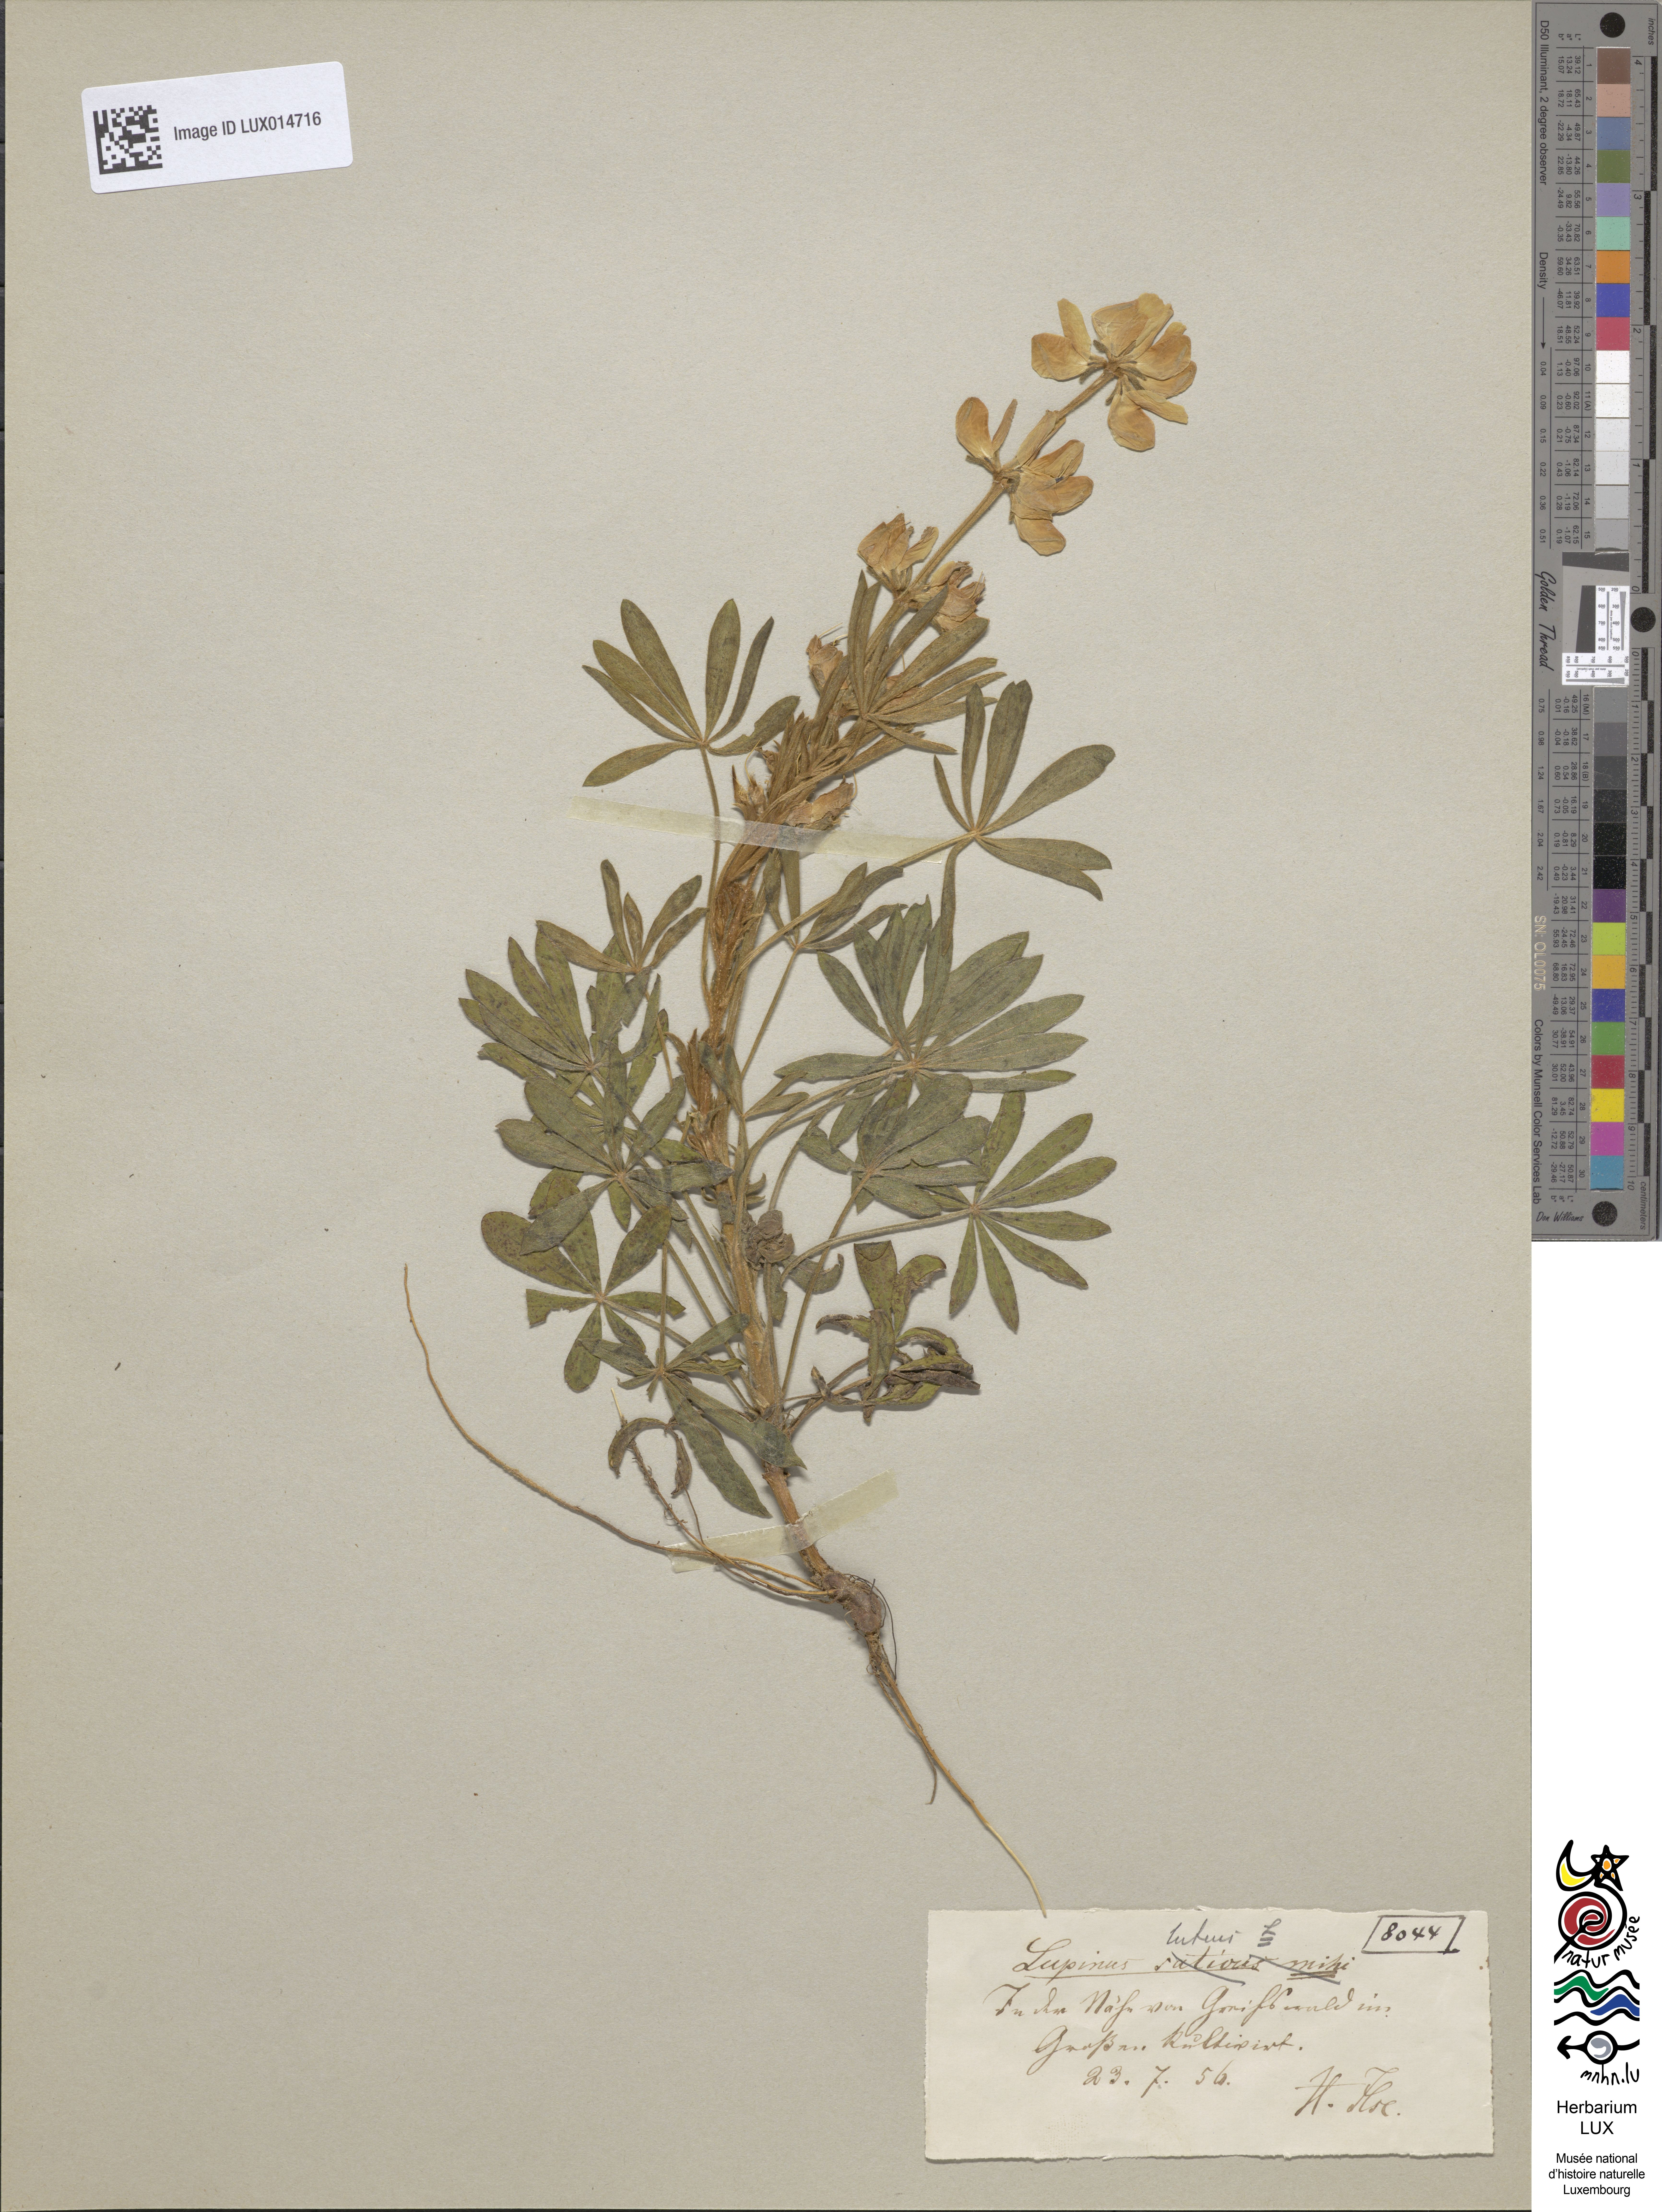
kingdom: Plantae
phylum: Tracheophyta
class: Magnoliopsida
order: Fabales
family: Fabaceae
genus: Lupinus
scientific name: Lupinus luteus
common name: European yellow lupine
